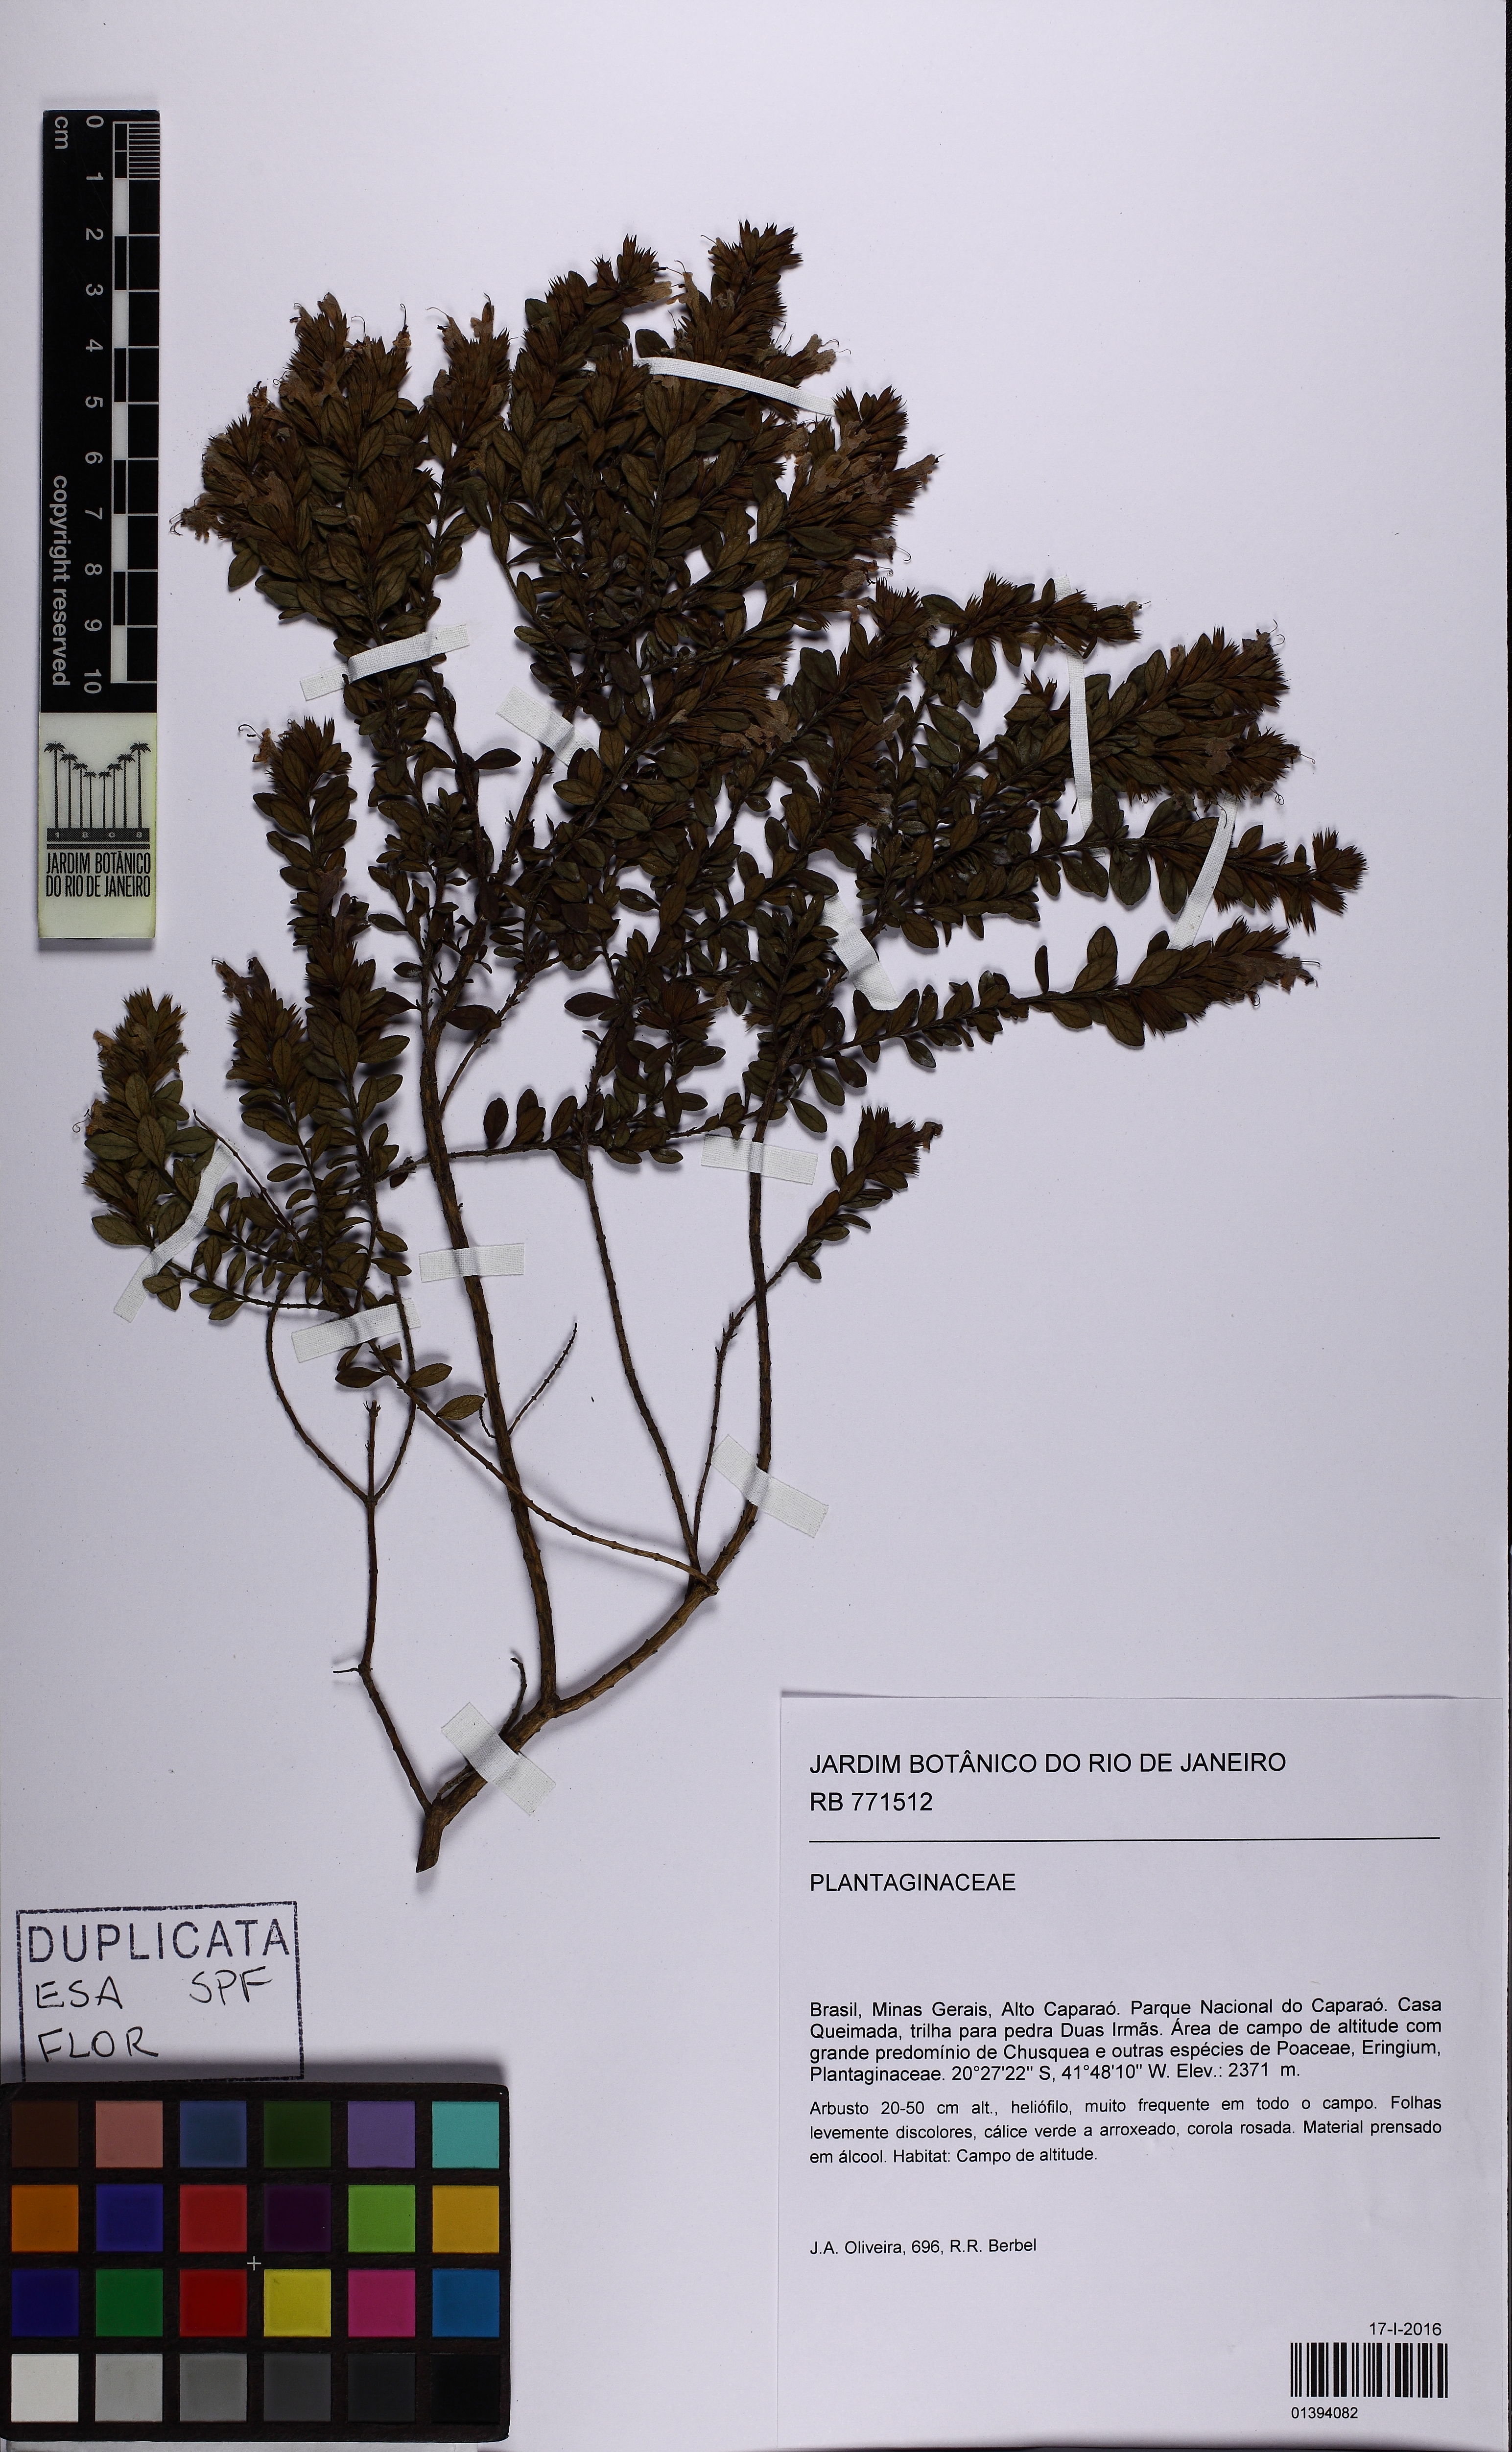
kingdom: Plantae
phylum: Tracheophyta
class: Magnoliopsida
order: Lamiales
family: Plantaginaceae
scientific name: Plantaginaceae
